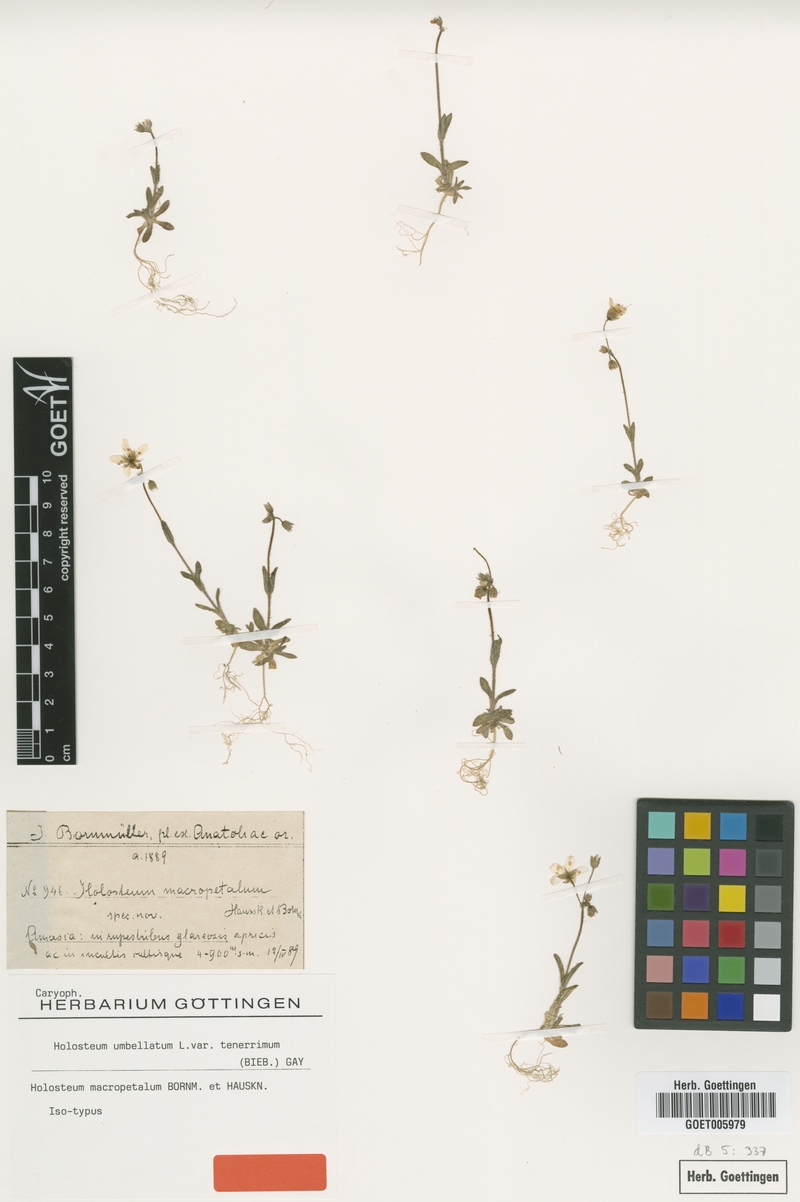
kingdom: Plantae
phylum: Tracheophyta
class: Magnoliopsida
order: Caryophyllales
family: Caryophyllaceae
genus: Holosteum
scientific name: Holosteum umbellatum
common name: Jagged chickweed
